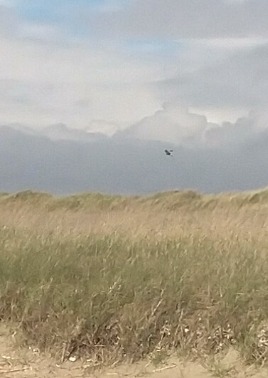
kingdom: Animalia
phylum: Chordata
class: Aves
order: Accipitriformes
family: Accipitridae
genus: Circus
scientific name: Circus aeruginosus
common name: Rørhøg
